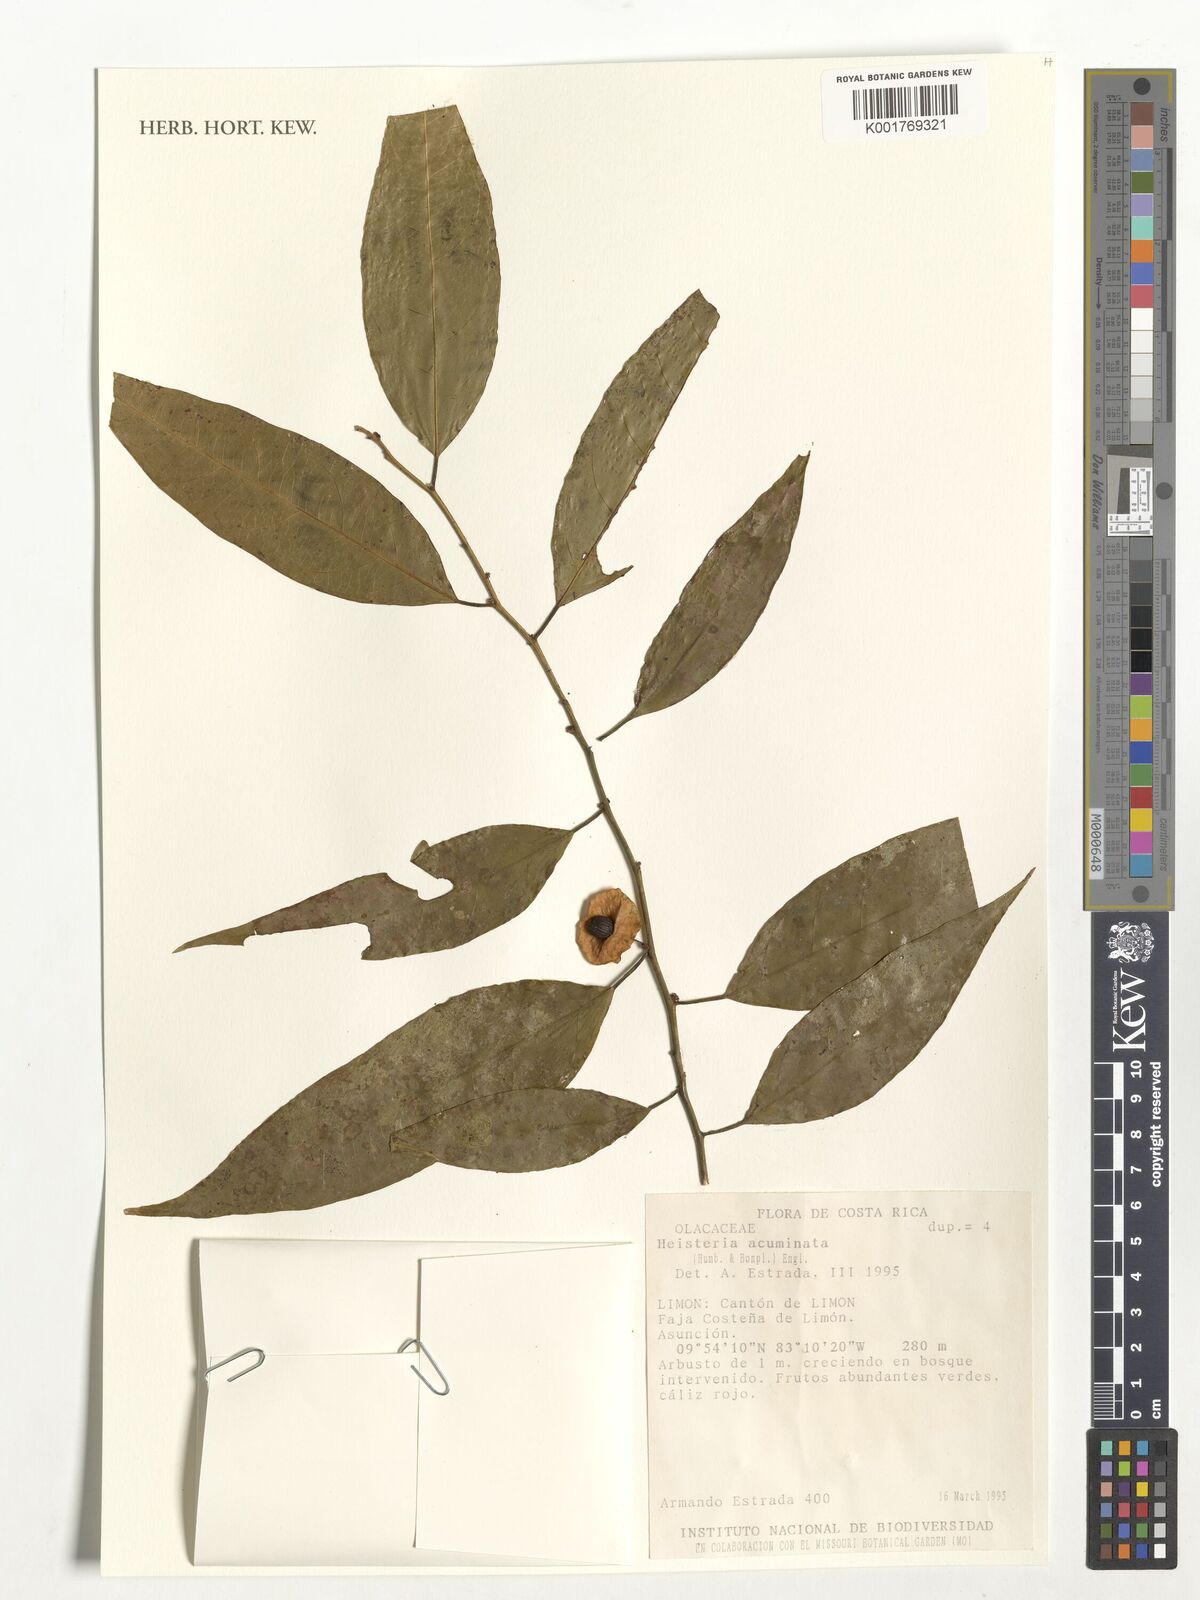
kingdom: Plantae
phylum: Tracheophyta
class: Magnoliopsida
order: Santalales
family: Erythropalaceae
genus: Heisteria
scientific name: Heisteria acuminata
